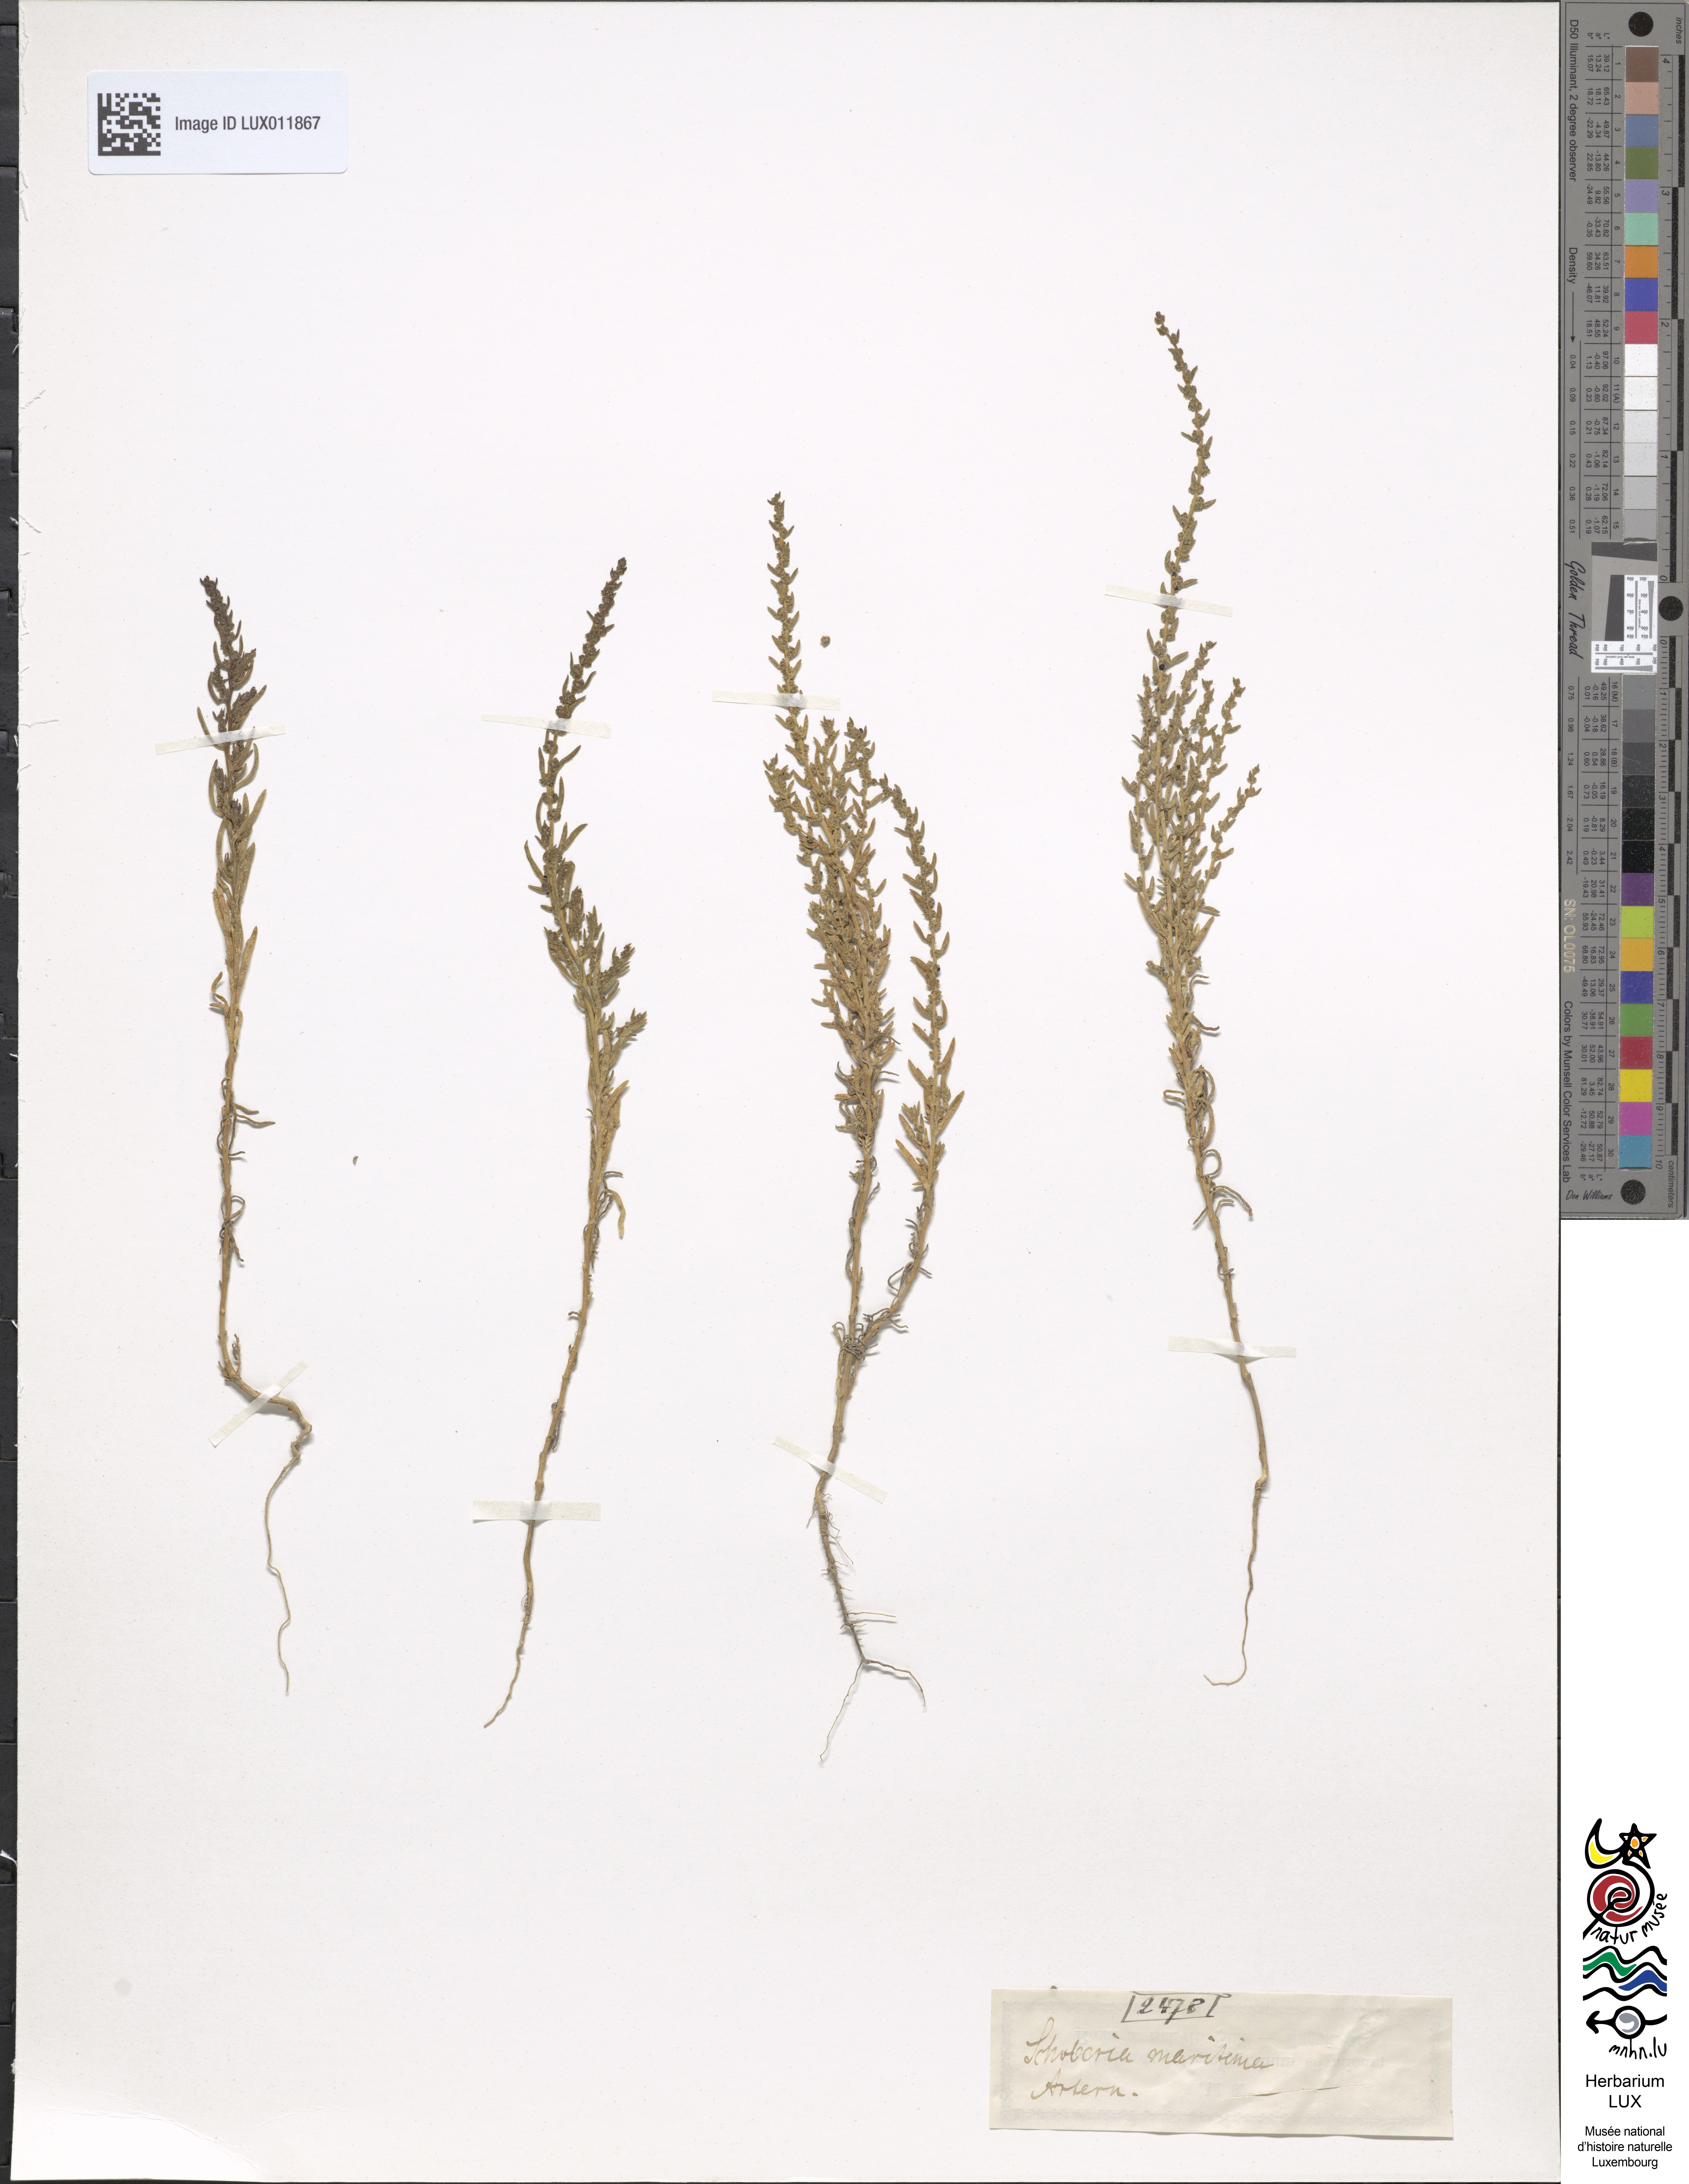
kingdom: Plantae
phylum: Tracheophyta
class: Magnoliopsida
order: Caryophyllales
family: Amaranthaceae
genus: Suaeda
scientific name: Suaeda maritima
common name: Annual sea-blite
